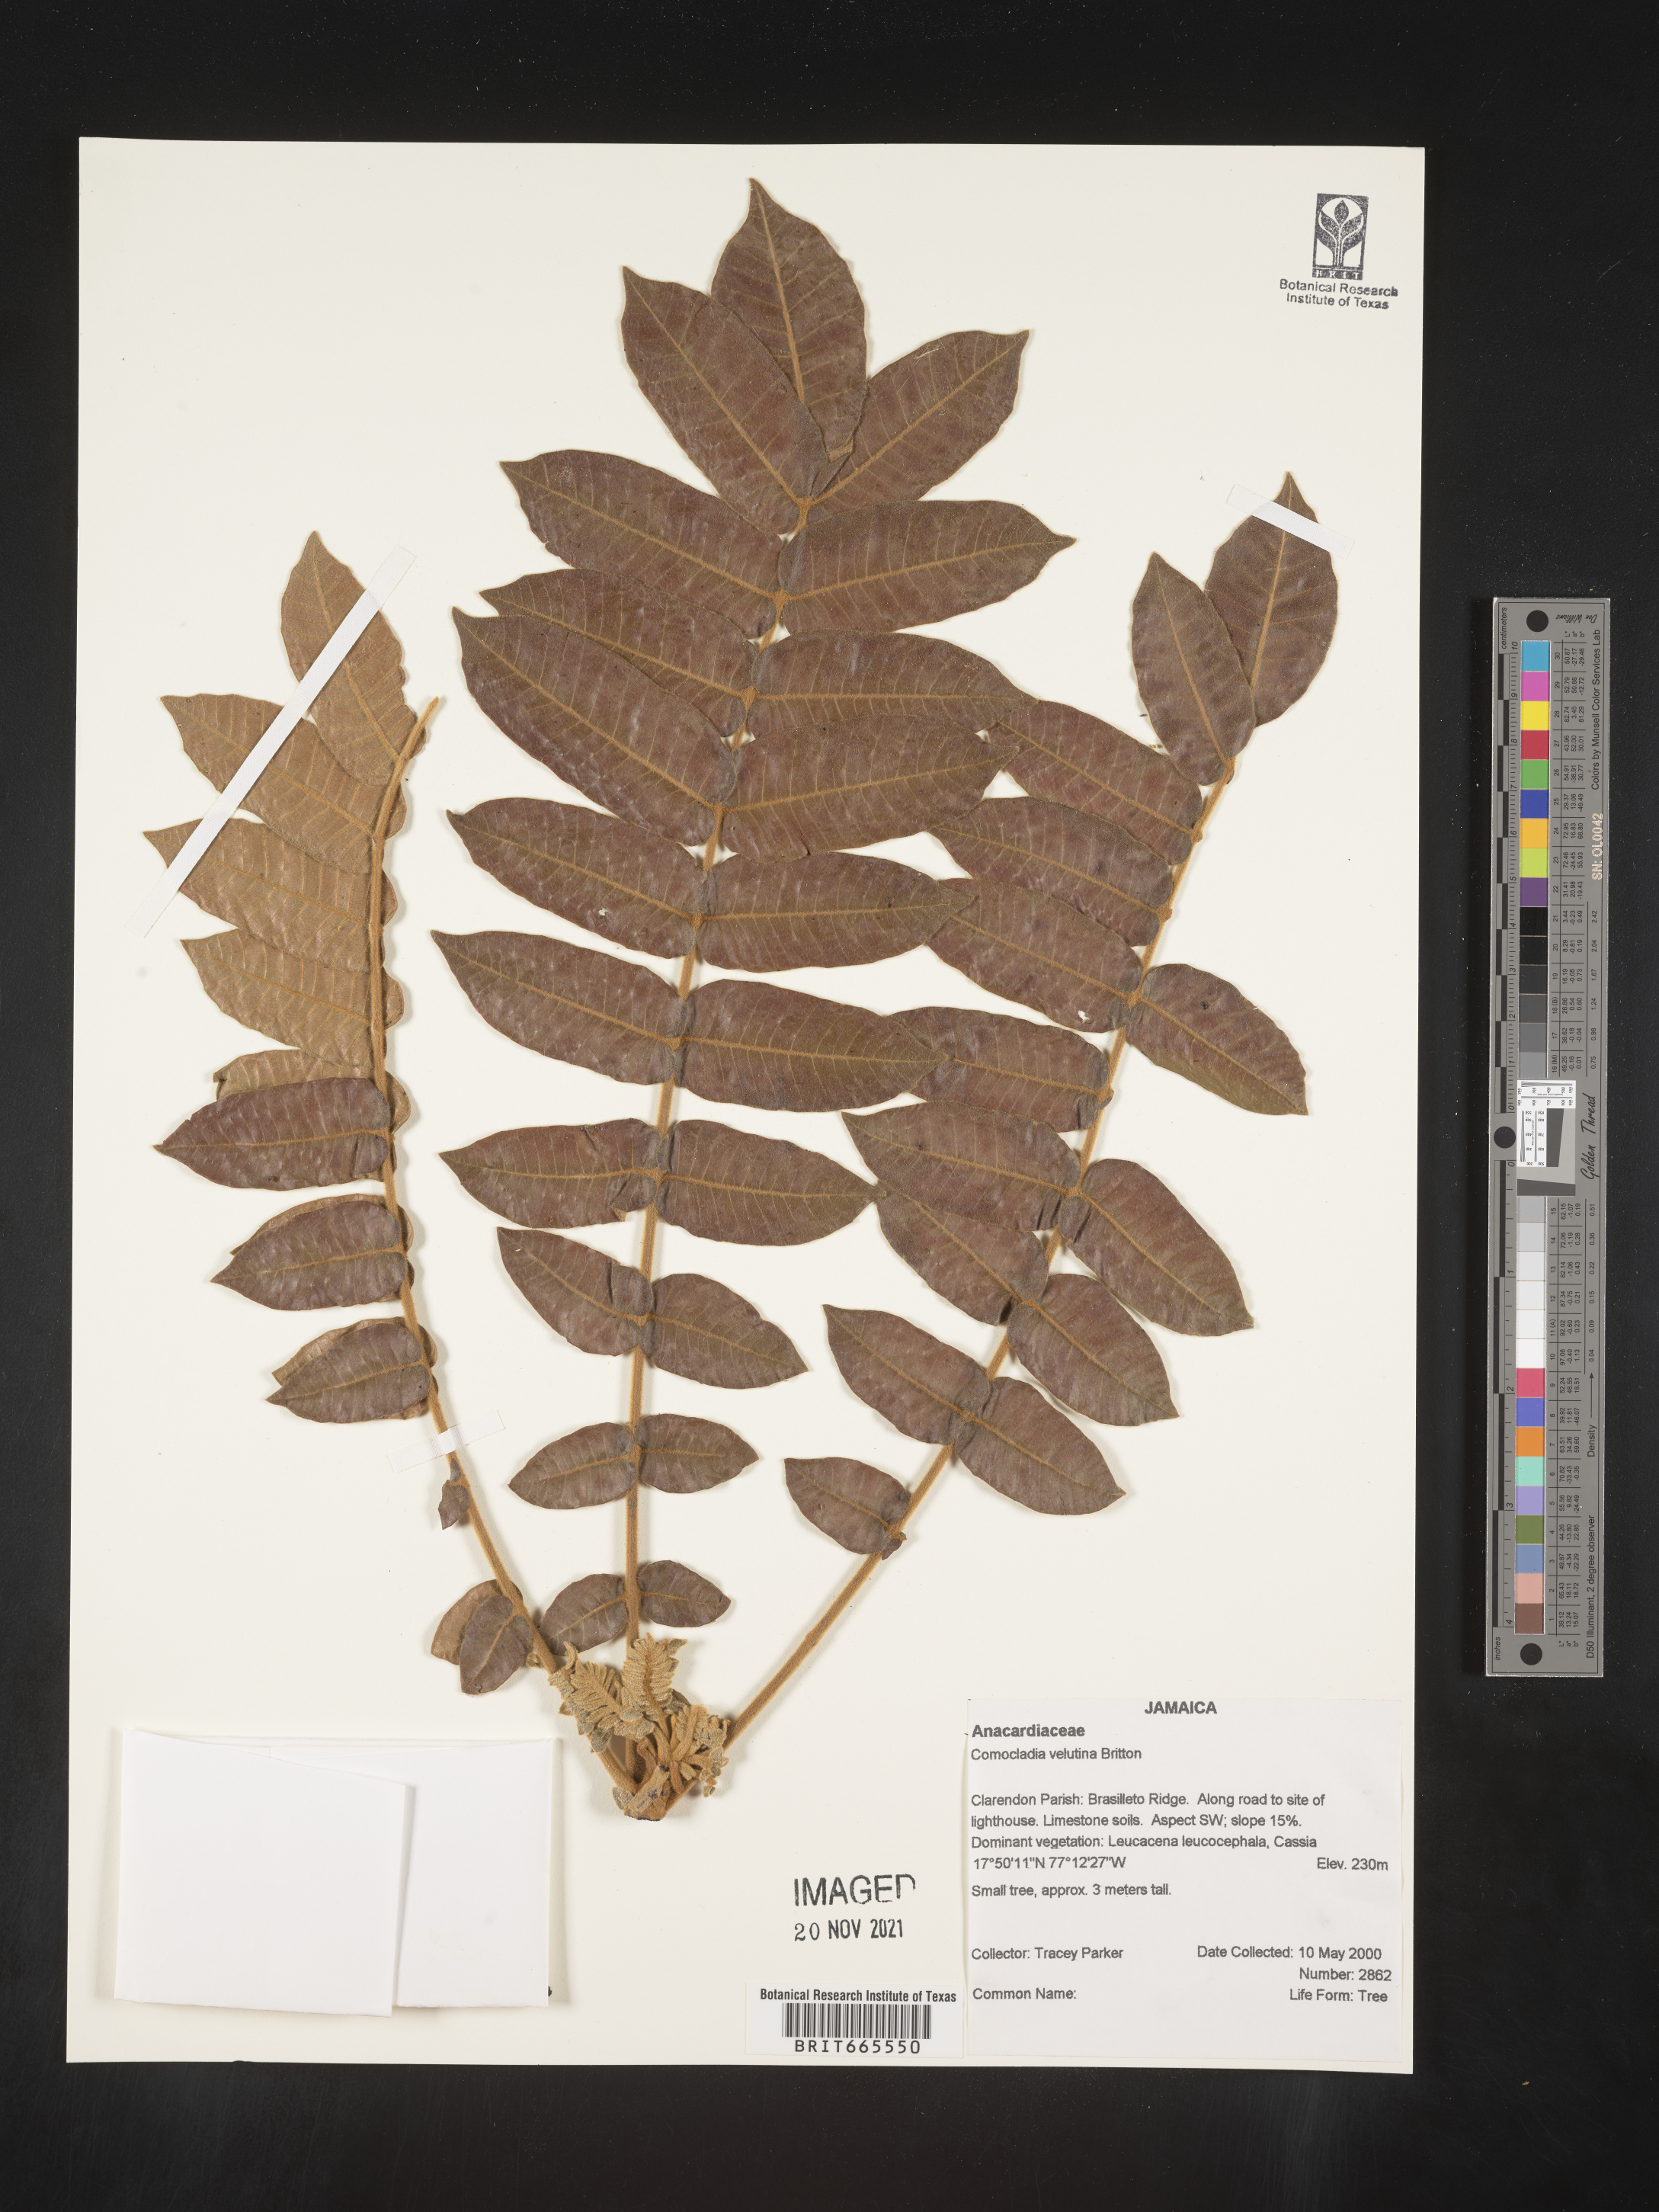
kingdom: Plantae
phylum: Tracheophyta
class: Magnoliopsida
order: Sapindales
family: Anacardiaceae
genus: Comocladia
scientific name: Comocladia
